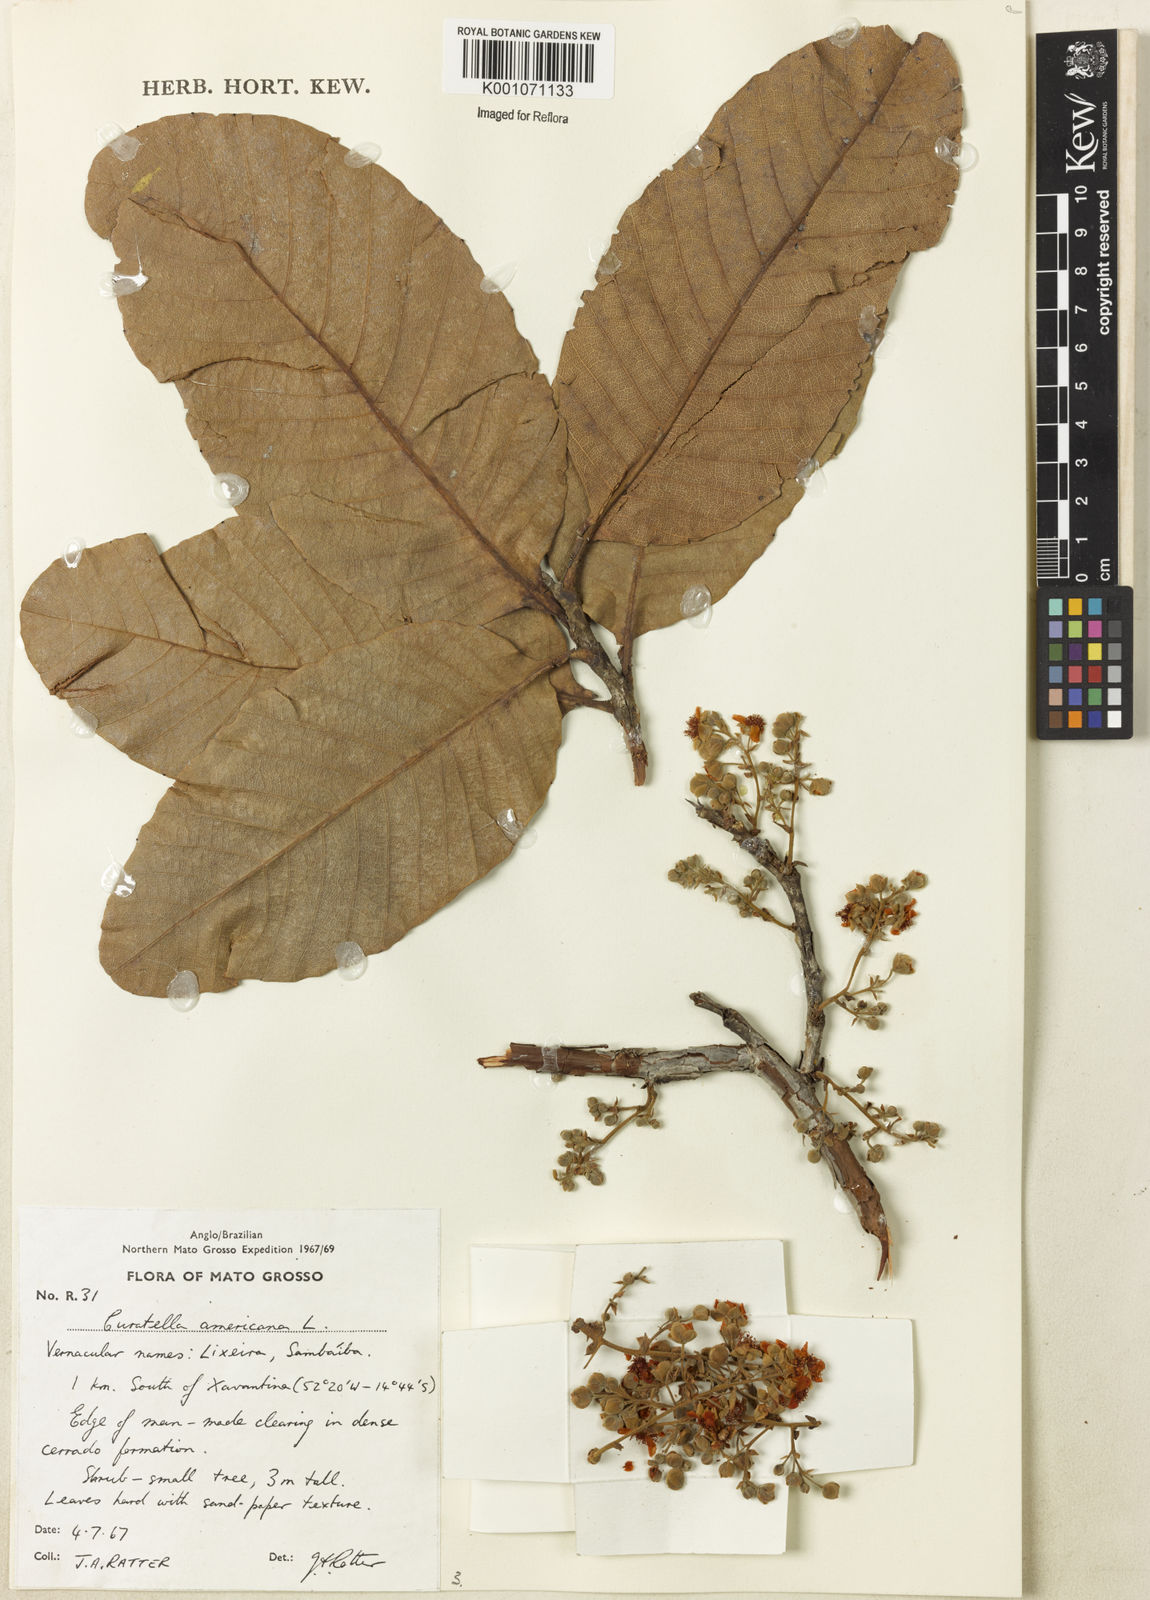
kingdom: Plantae
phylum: Tracheophyta
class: Magnoliopsida
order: Dilleniales
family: Dilleniaceae
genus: Curatella
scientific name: Curatella americana
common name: Sandpaper tree
